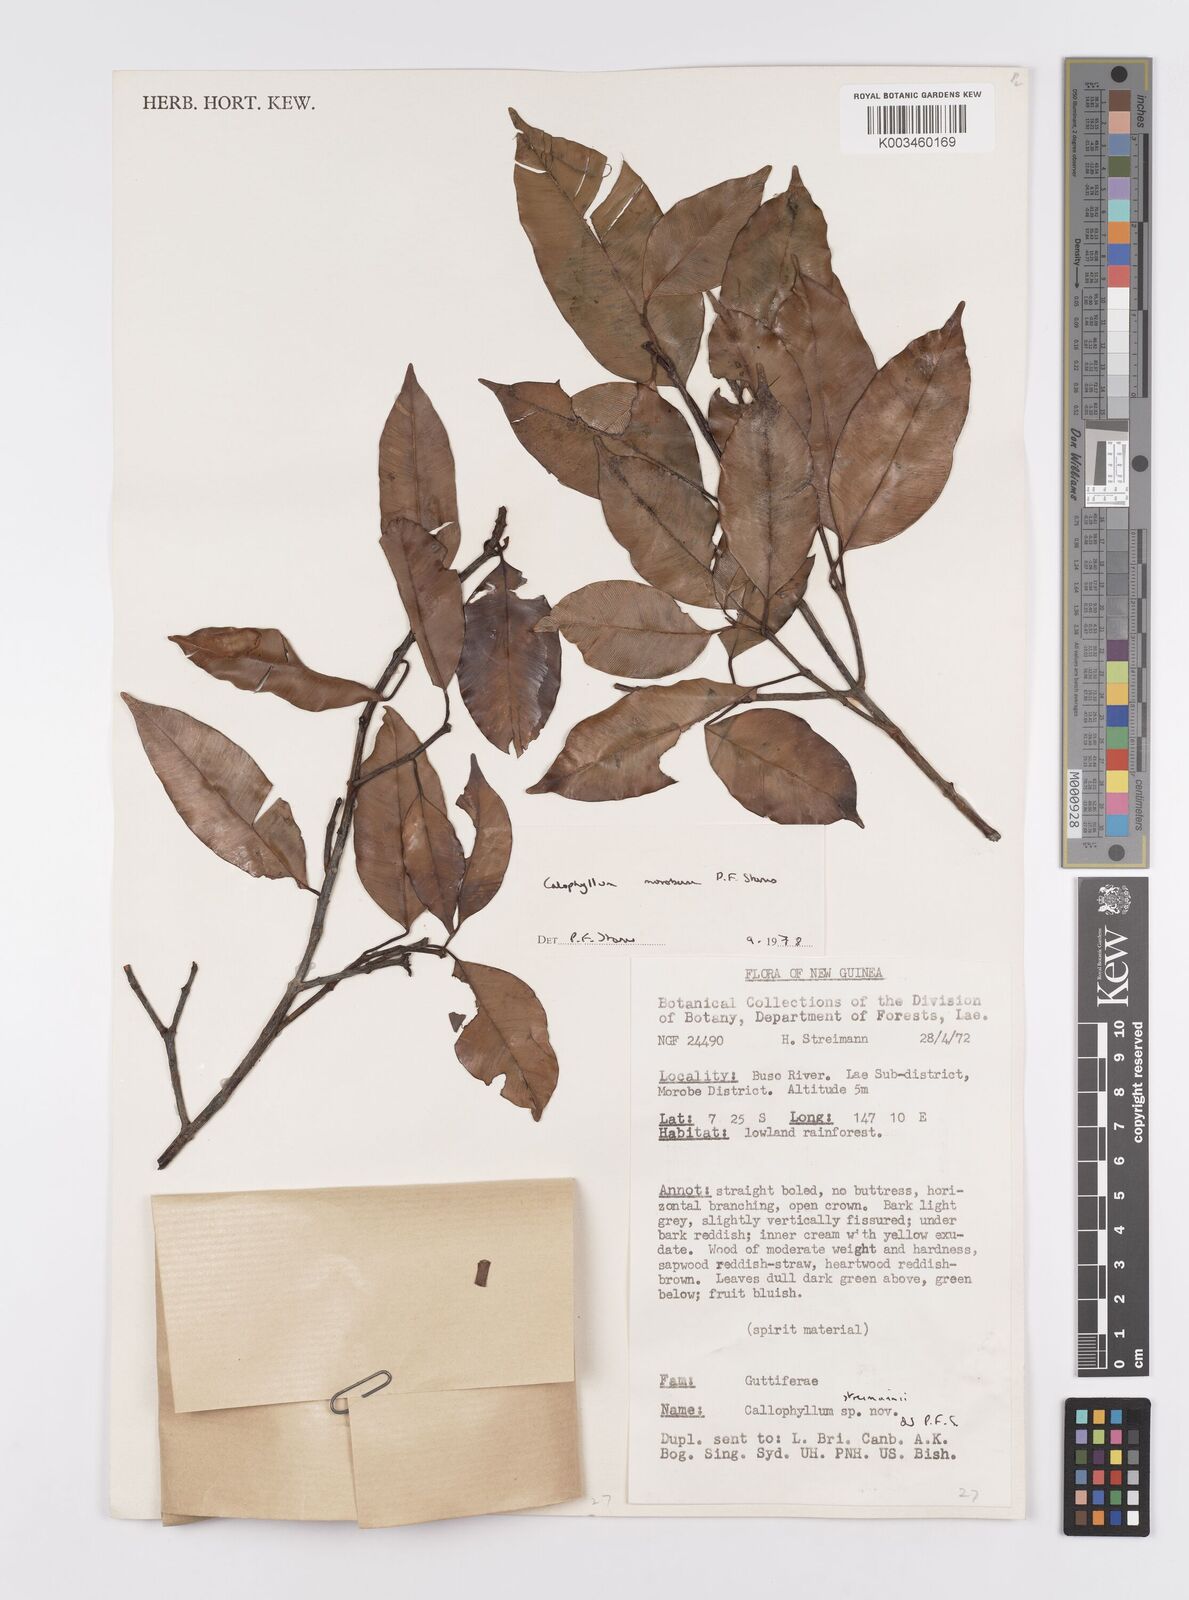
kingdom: Plantae
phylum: Tracheophyta
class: Magnoliopsida
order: Malpighiales
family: Calophyllaceae
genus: Calophyllum
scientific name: Calophyllum morobensis
